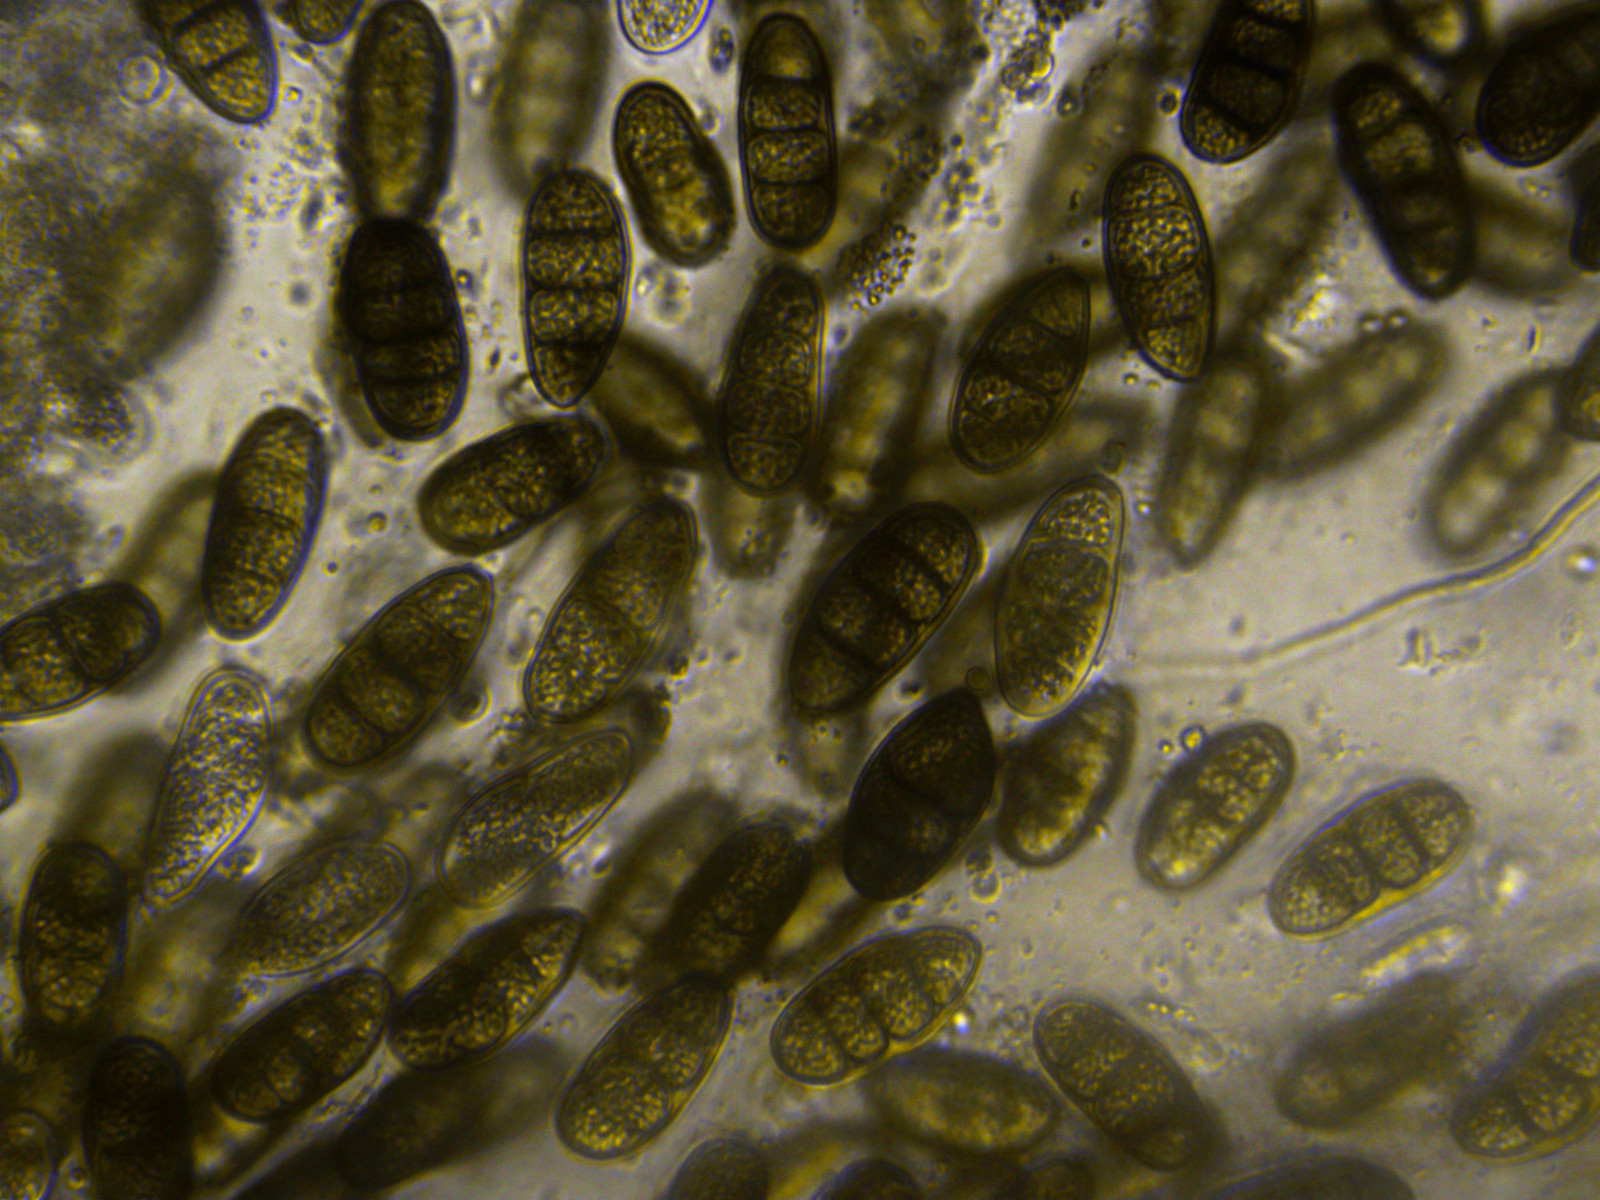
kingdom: Fungi
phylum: Ascomycota
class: Dothideomycetes
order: Pleosporales
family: Macrodiplodiopsidaceae
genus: Macrodiplodiopsis
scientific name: Macrodiplodiopsis desmazieri
